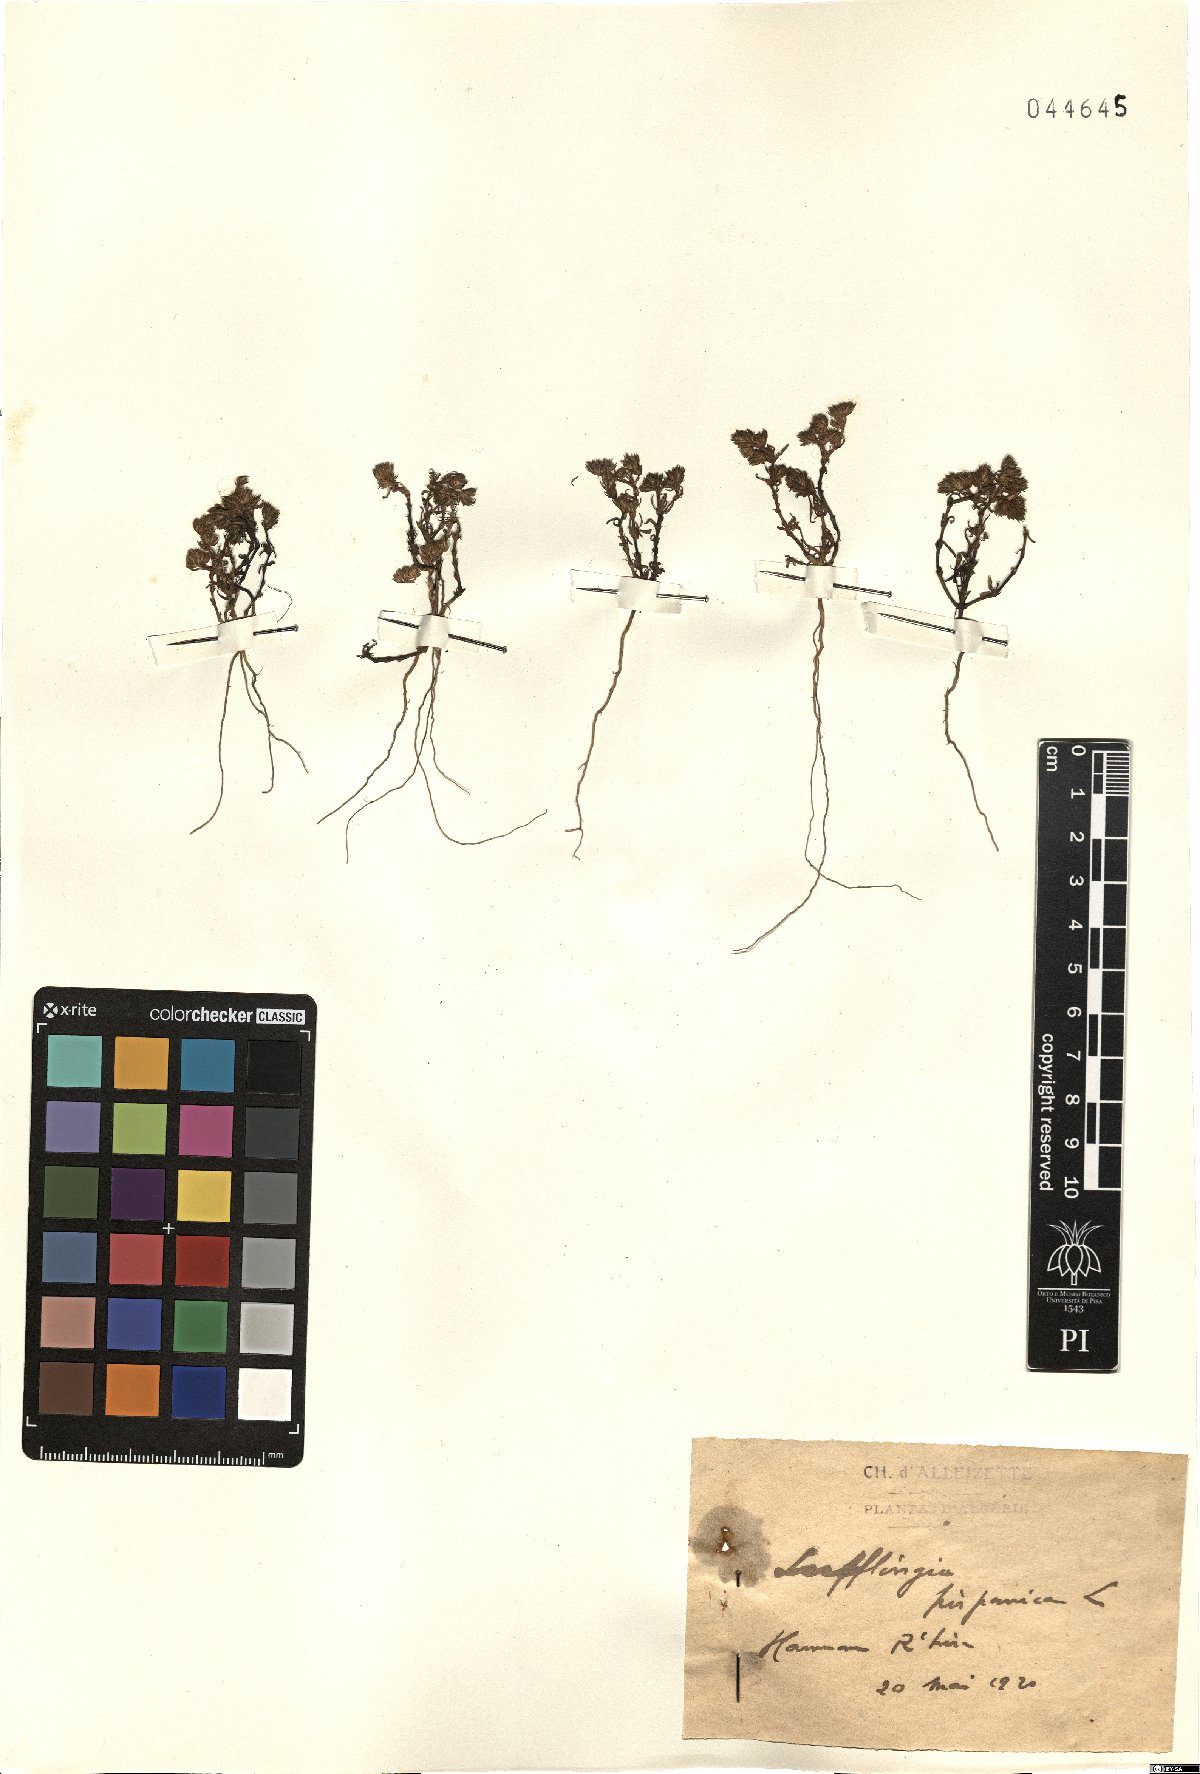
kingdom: Plantae
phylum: Tracheophyta
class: Magnoliopsida
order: Caryophyllales
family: Caryophyllaceae
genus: Loeflingia
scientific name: Loeflingia hispanica
